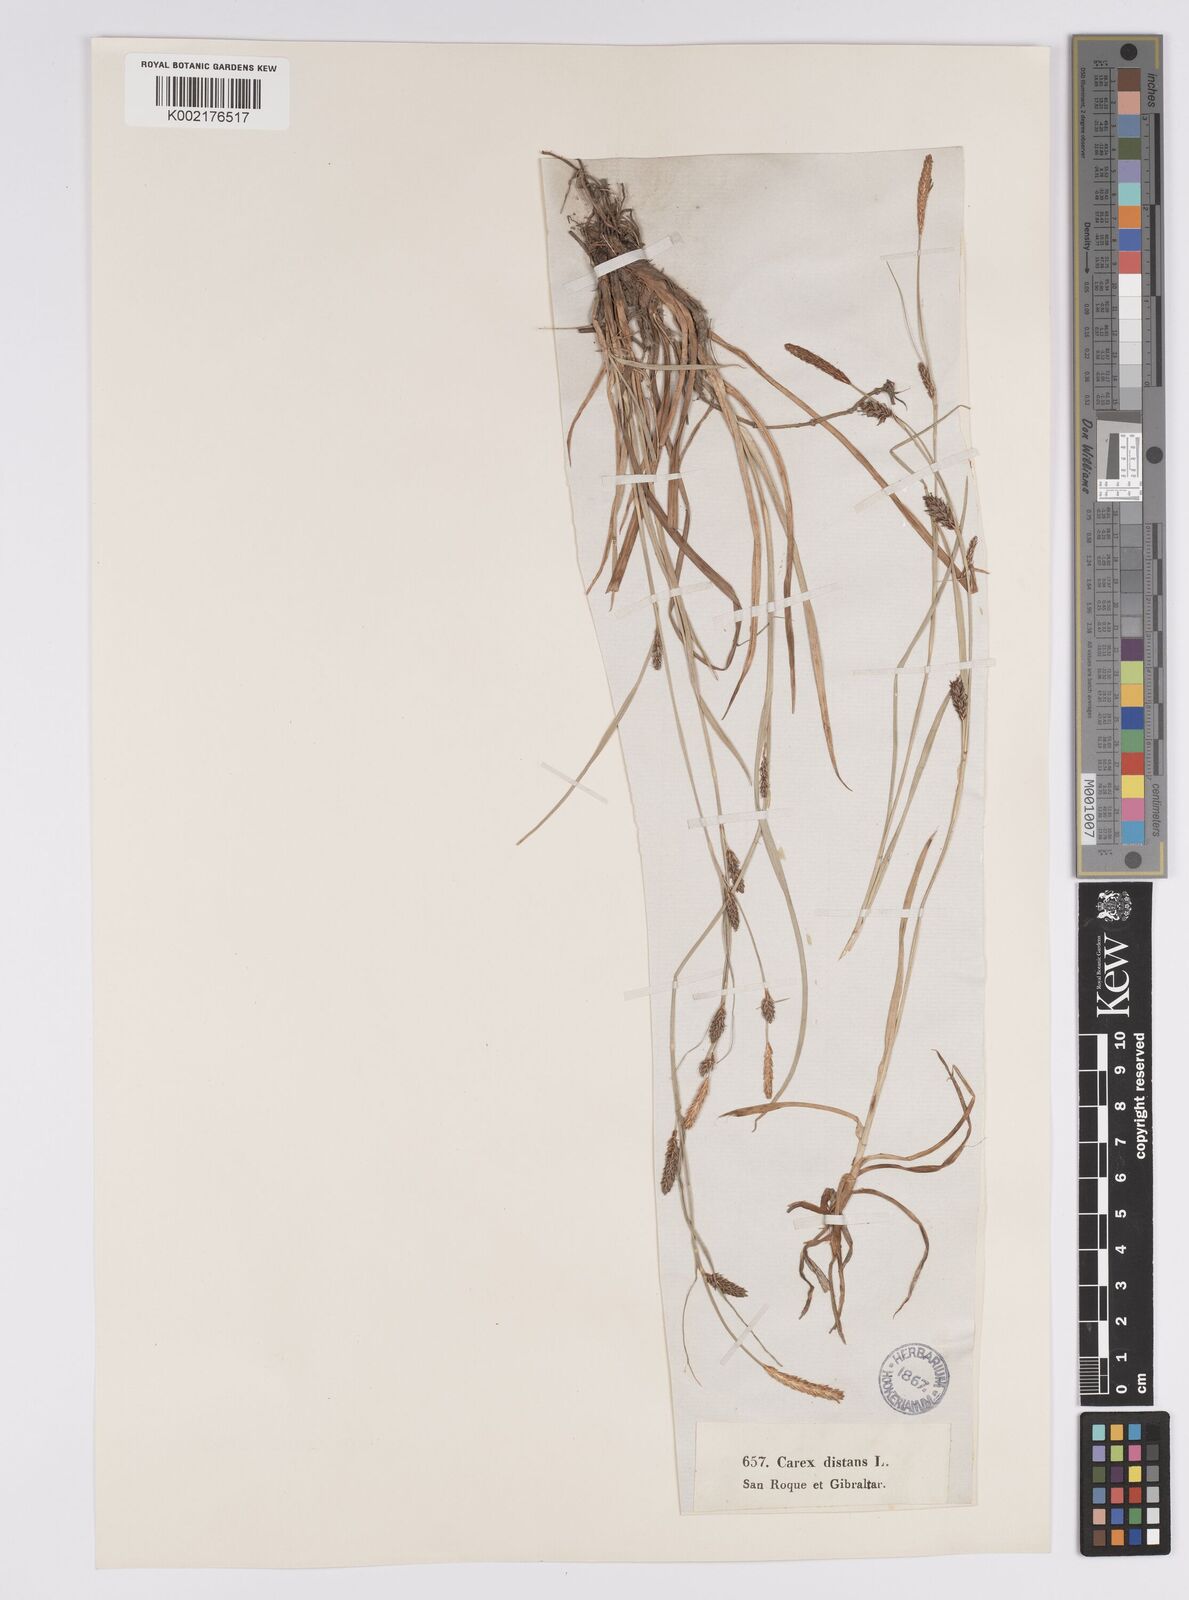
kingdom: Plantae
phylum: Tracheophyta
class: Liliopsida
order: Poales
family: Cyperaceae
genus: Carex
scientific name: Carex distans
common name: Distant sedge
